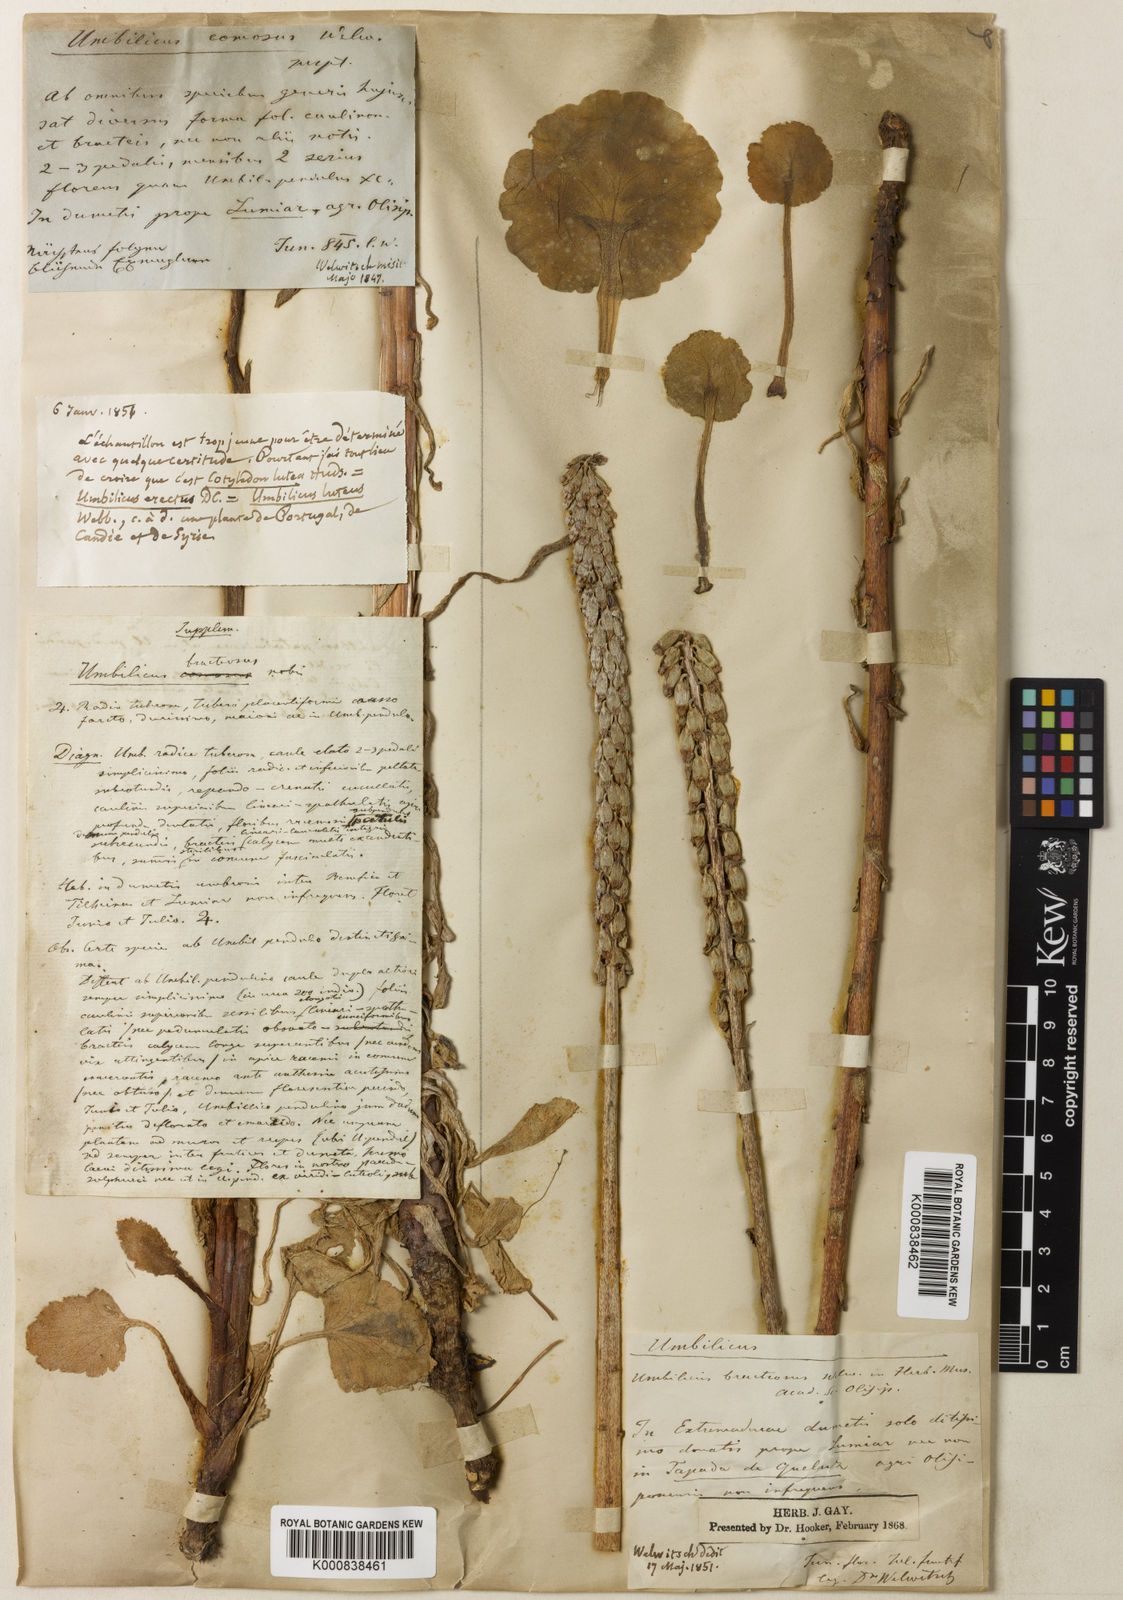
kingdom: Plantae
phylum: Tracheophyta
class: Magnoliopsida
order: Saxifragales
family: Crassulaceae
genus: Umbilicus
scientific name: Umbilicus heylandianus
